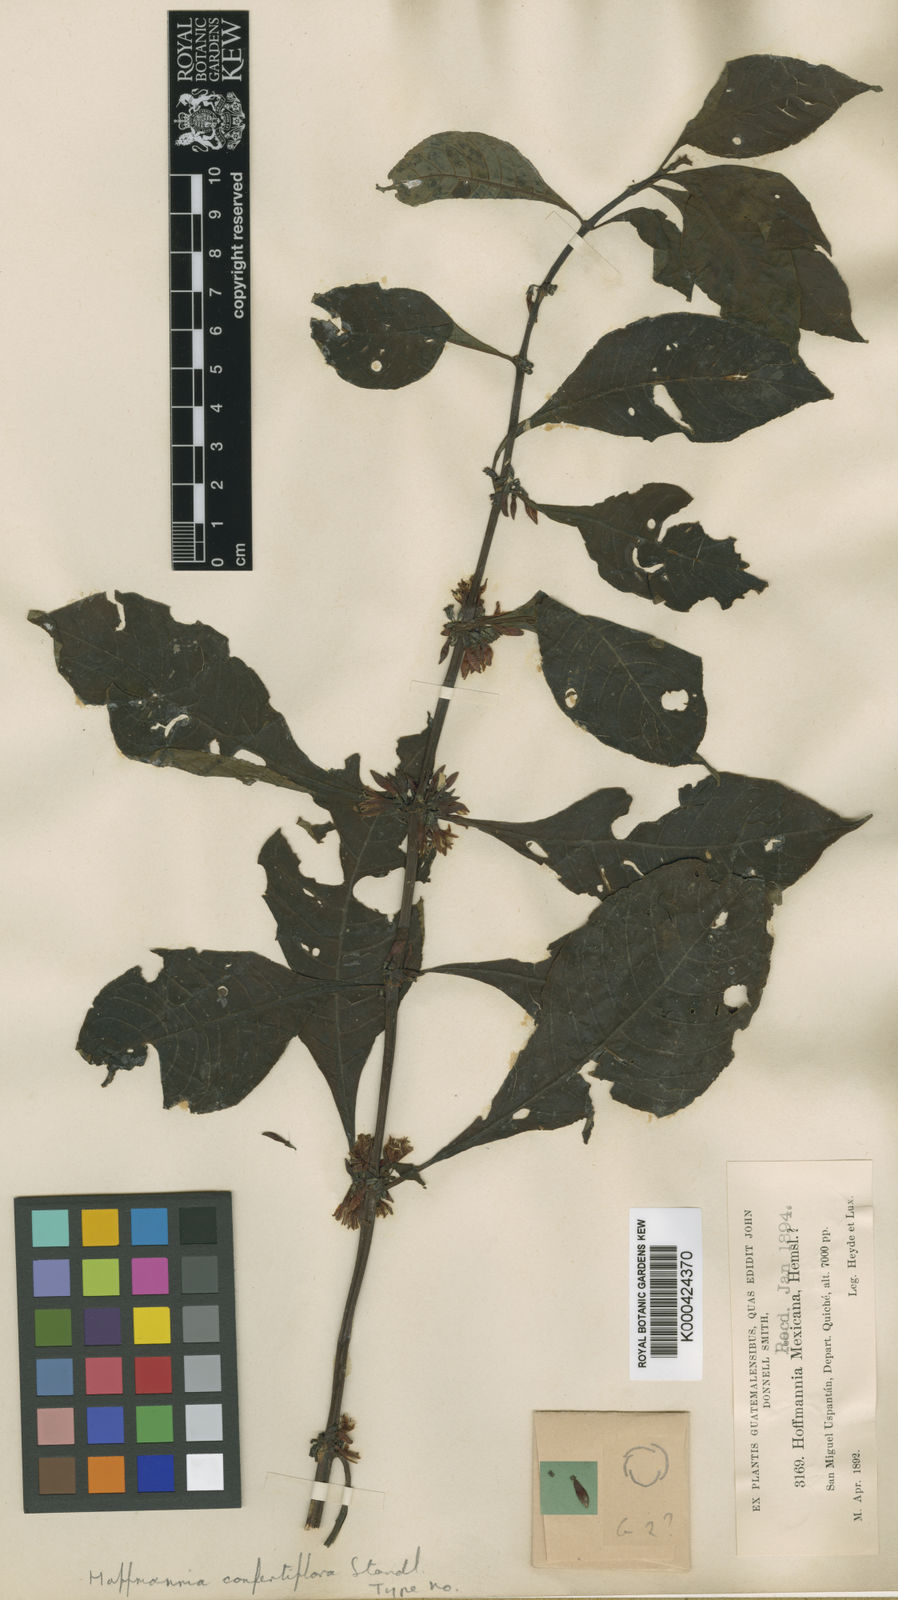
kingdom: Plantae
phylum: Tracheophyta
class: Magnoliopsida
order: Gentianales
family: Rubiaceae
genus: Hoffmannia
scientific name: Hoffmannia psychotriifolia
